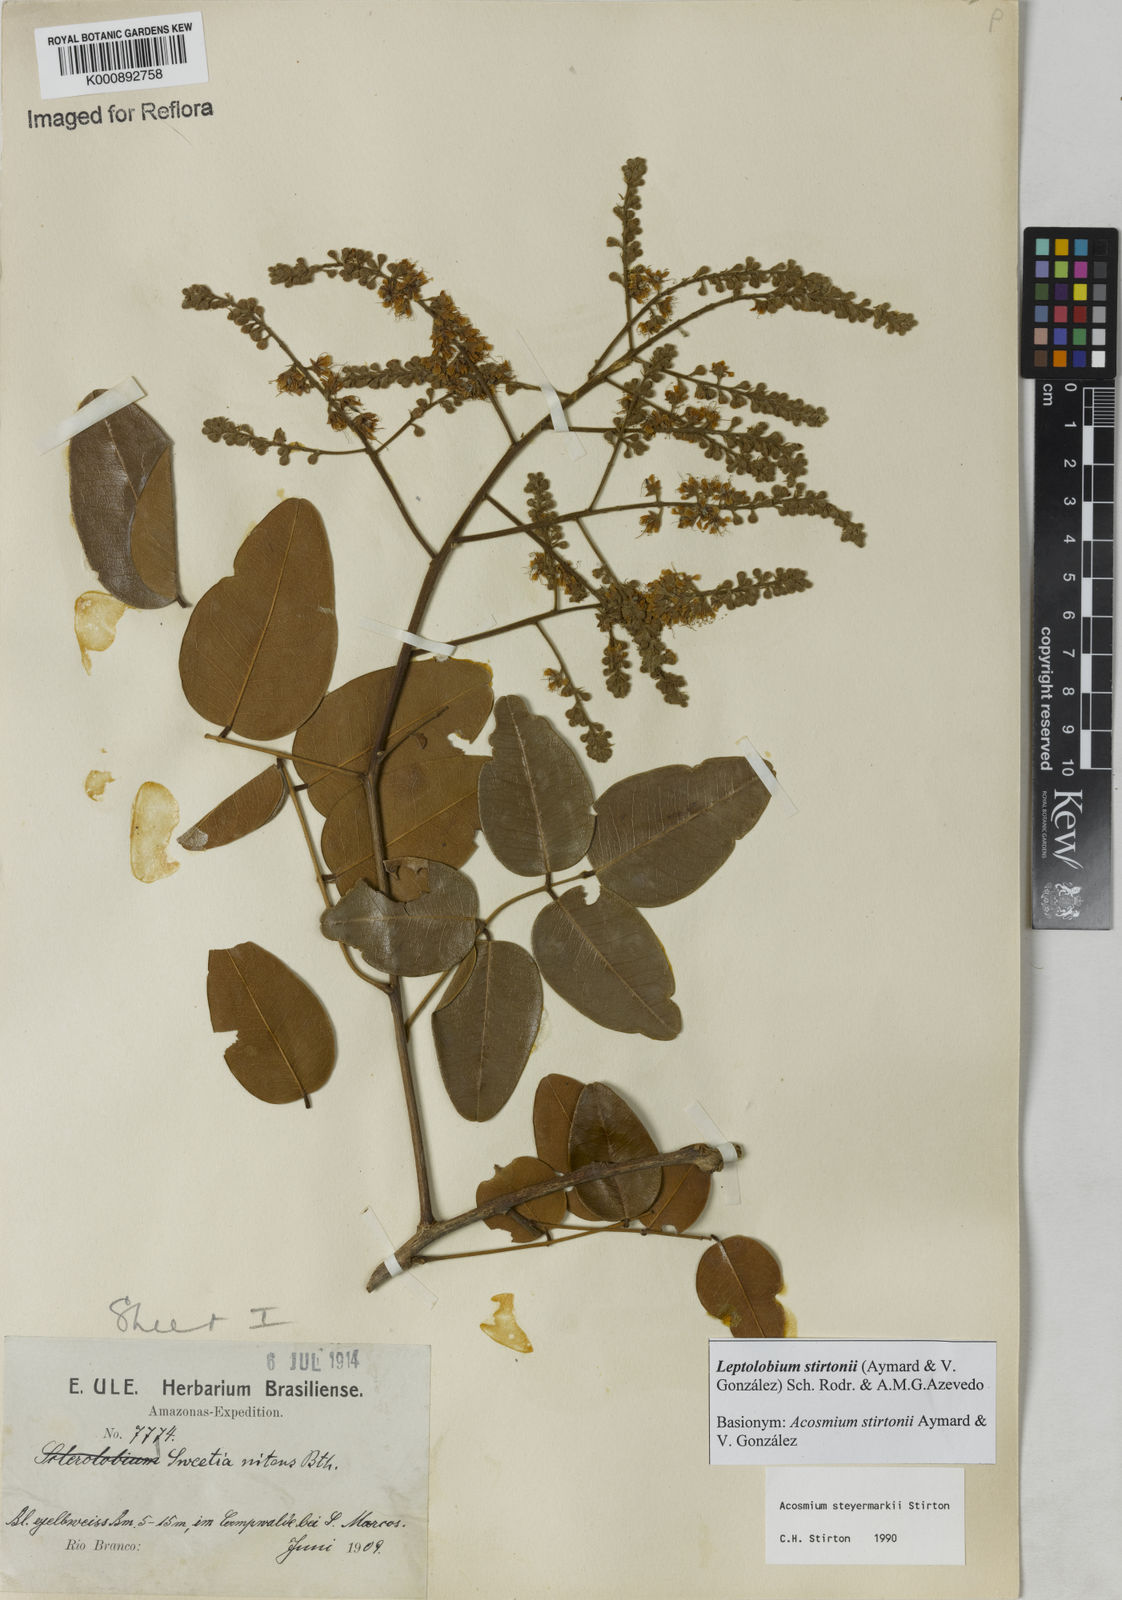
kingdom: Plantae
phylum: Tracheophyta
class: Magnoliopsida
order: Fabales
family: Fabaceae
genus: Leptolobium
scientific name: Leptolobium
